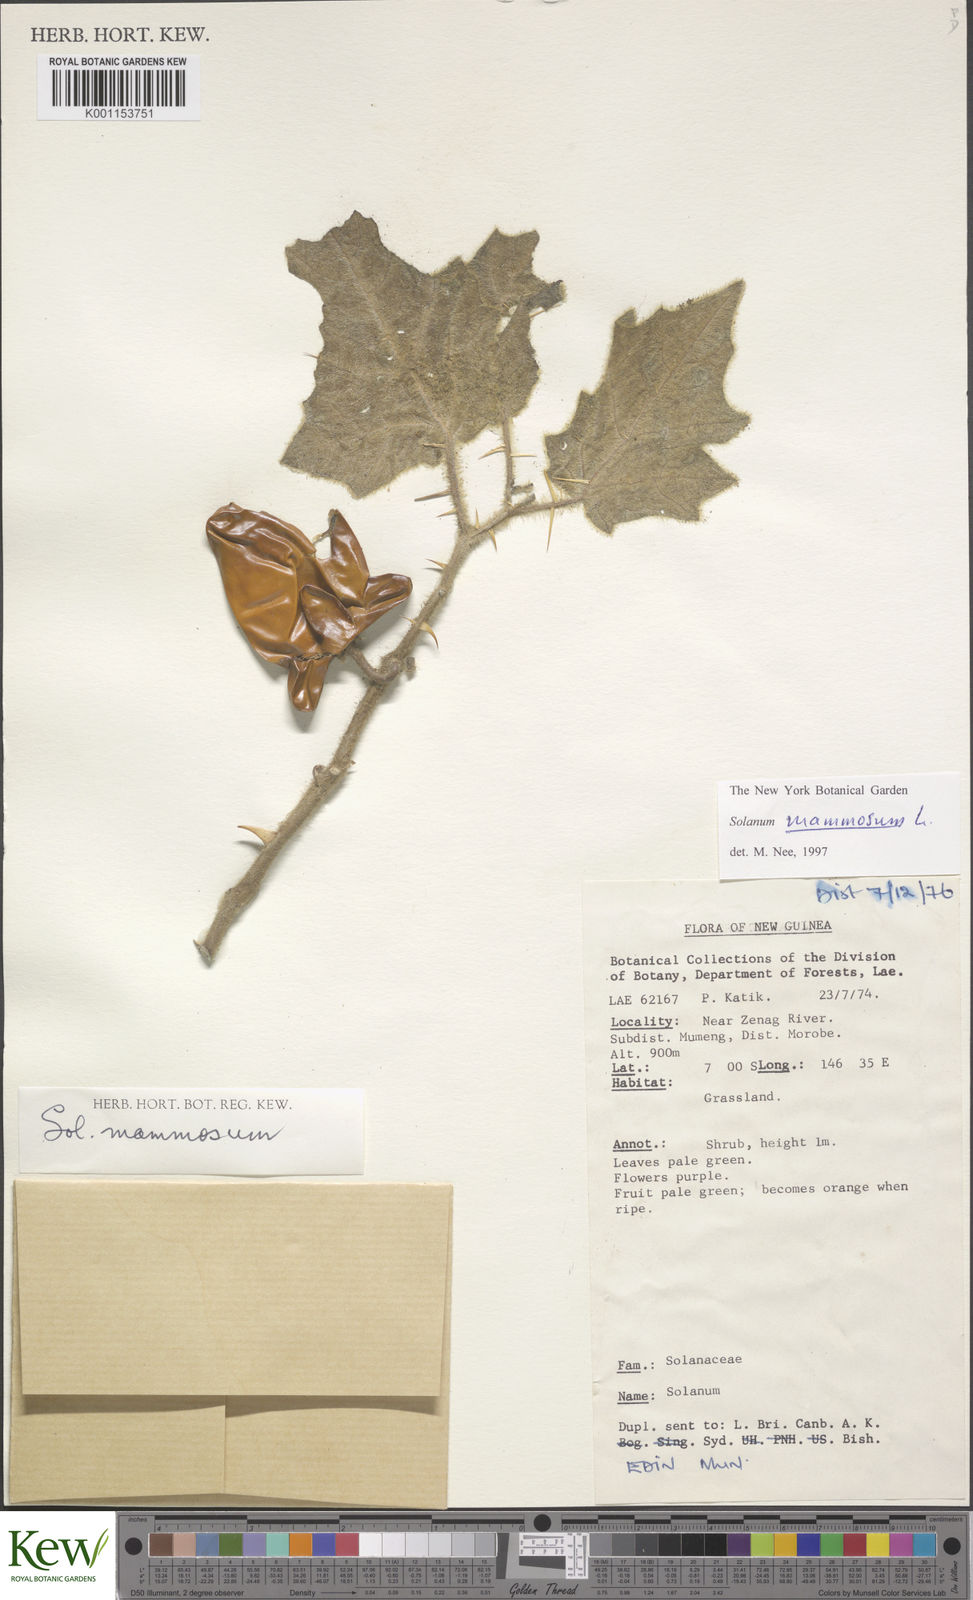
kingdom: Plantae
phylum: Tracheophyta
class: Magnoliopsida
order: Solanales
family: Solanaceae
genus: Solanum
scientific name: Solanum mammosum
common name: Nipple fruit
